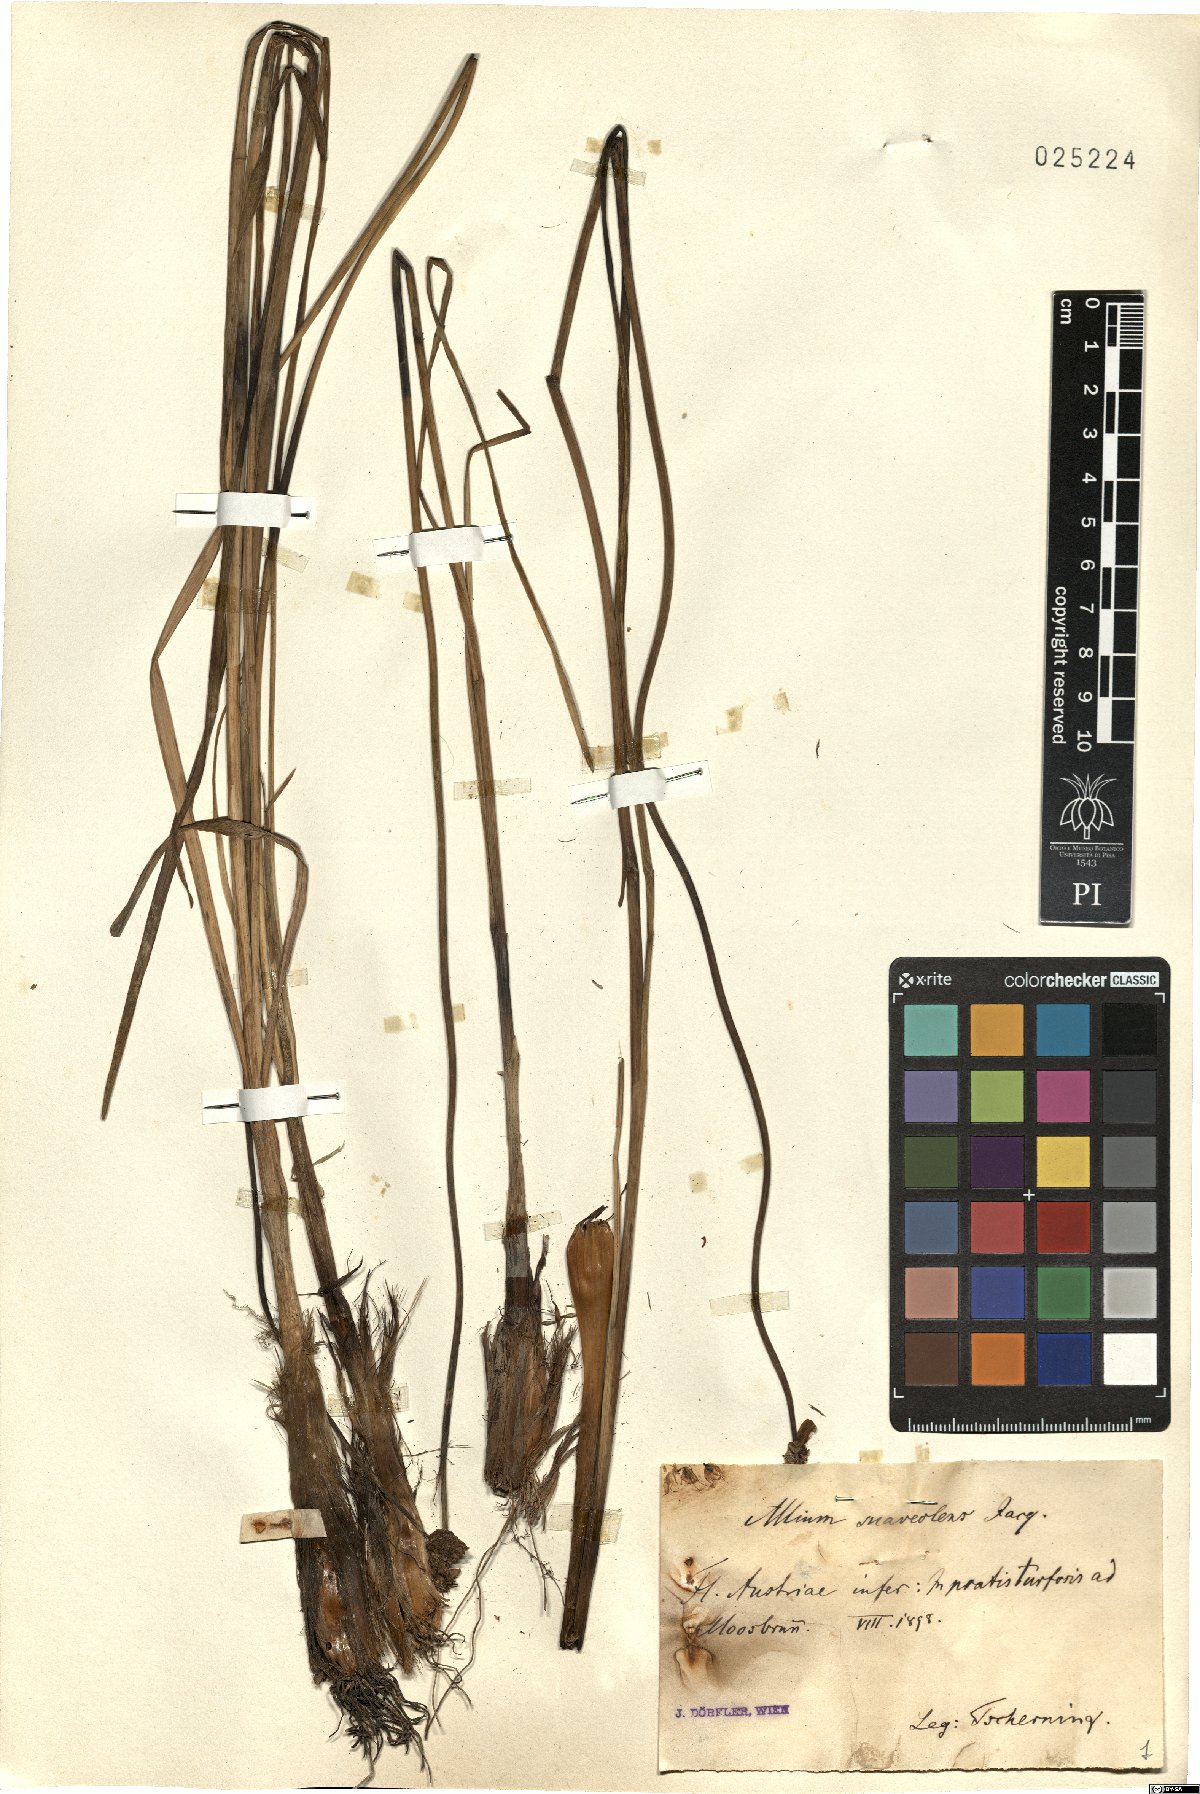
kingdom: Plantae
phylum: Tracheophyta
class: Liliopsida
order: Asparagales
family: Amaryllidaceae
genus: Allium
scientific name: Allium suaveolens
